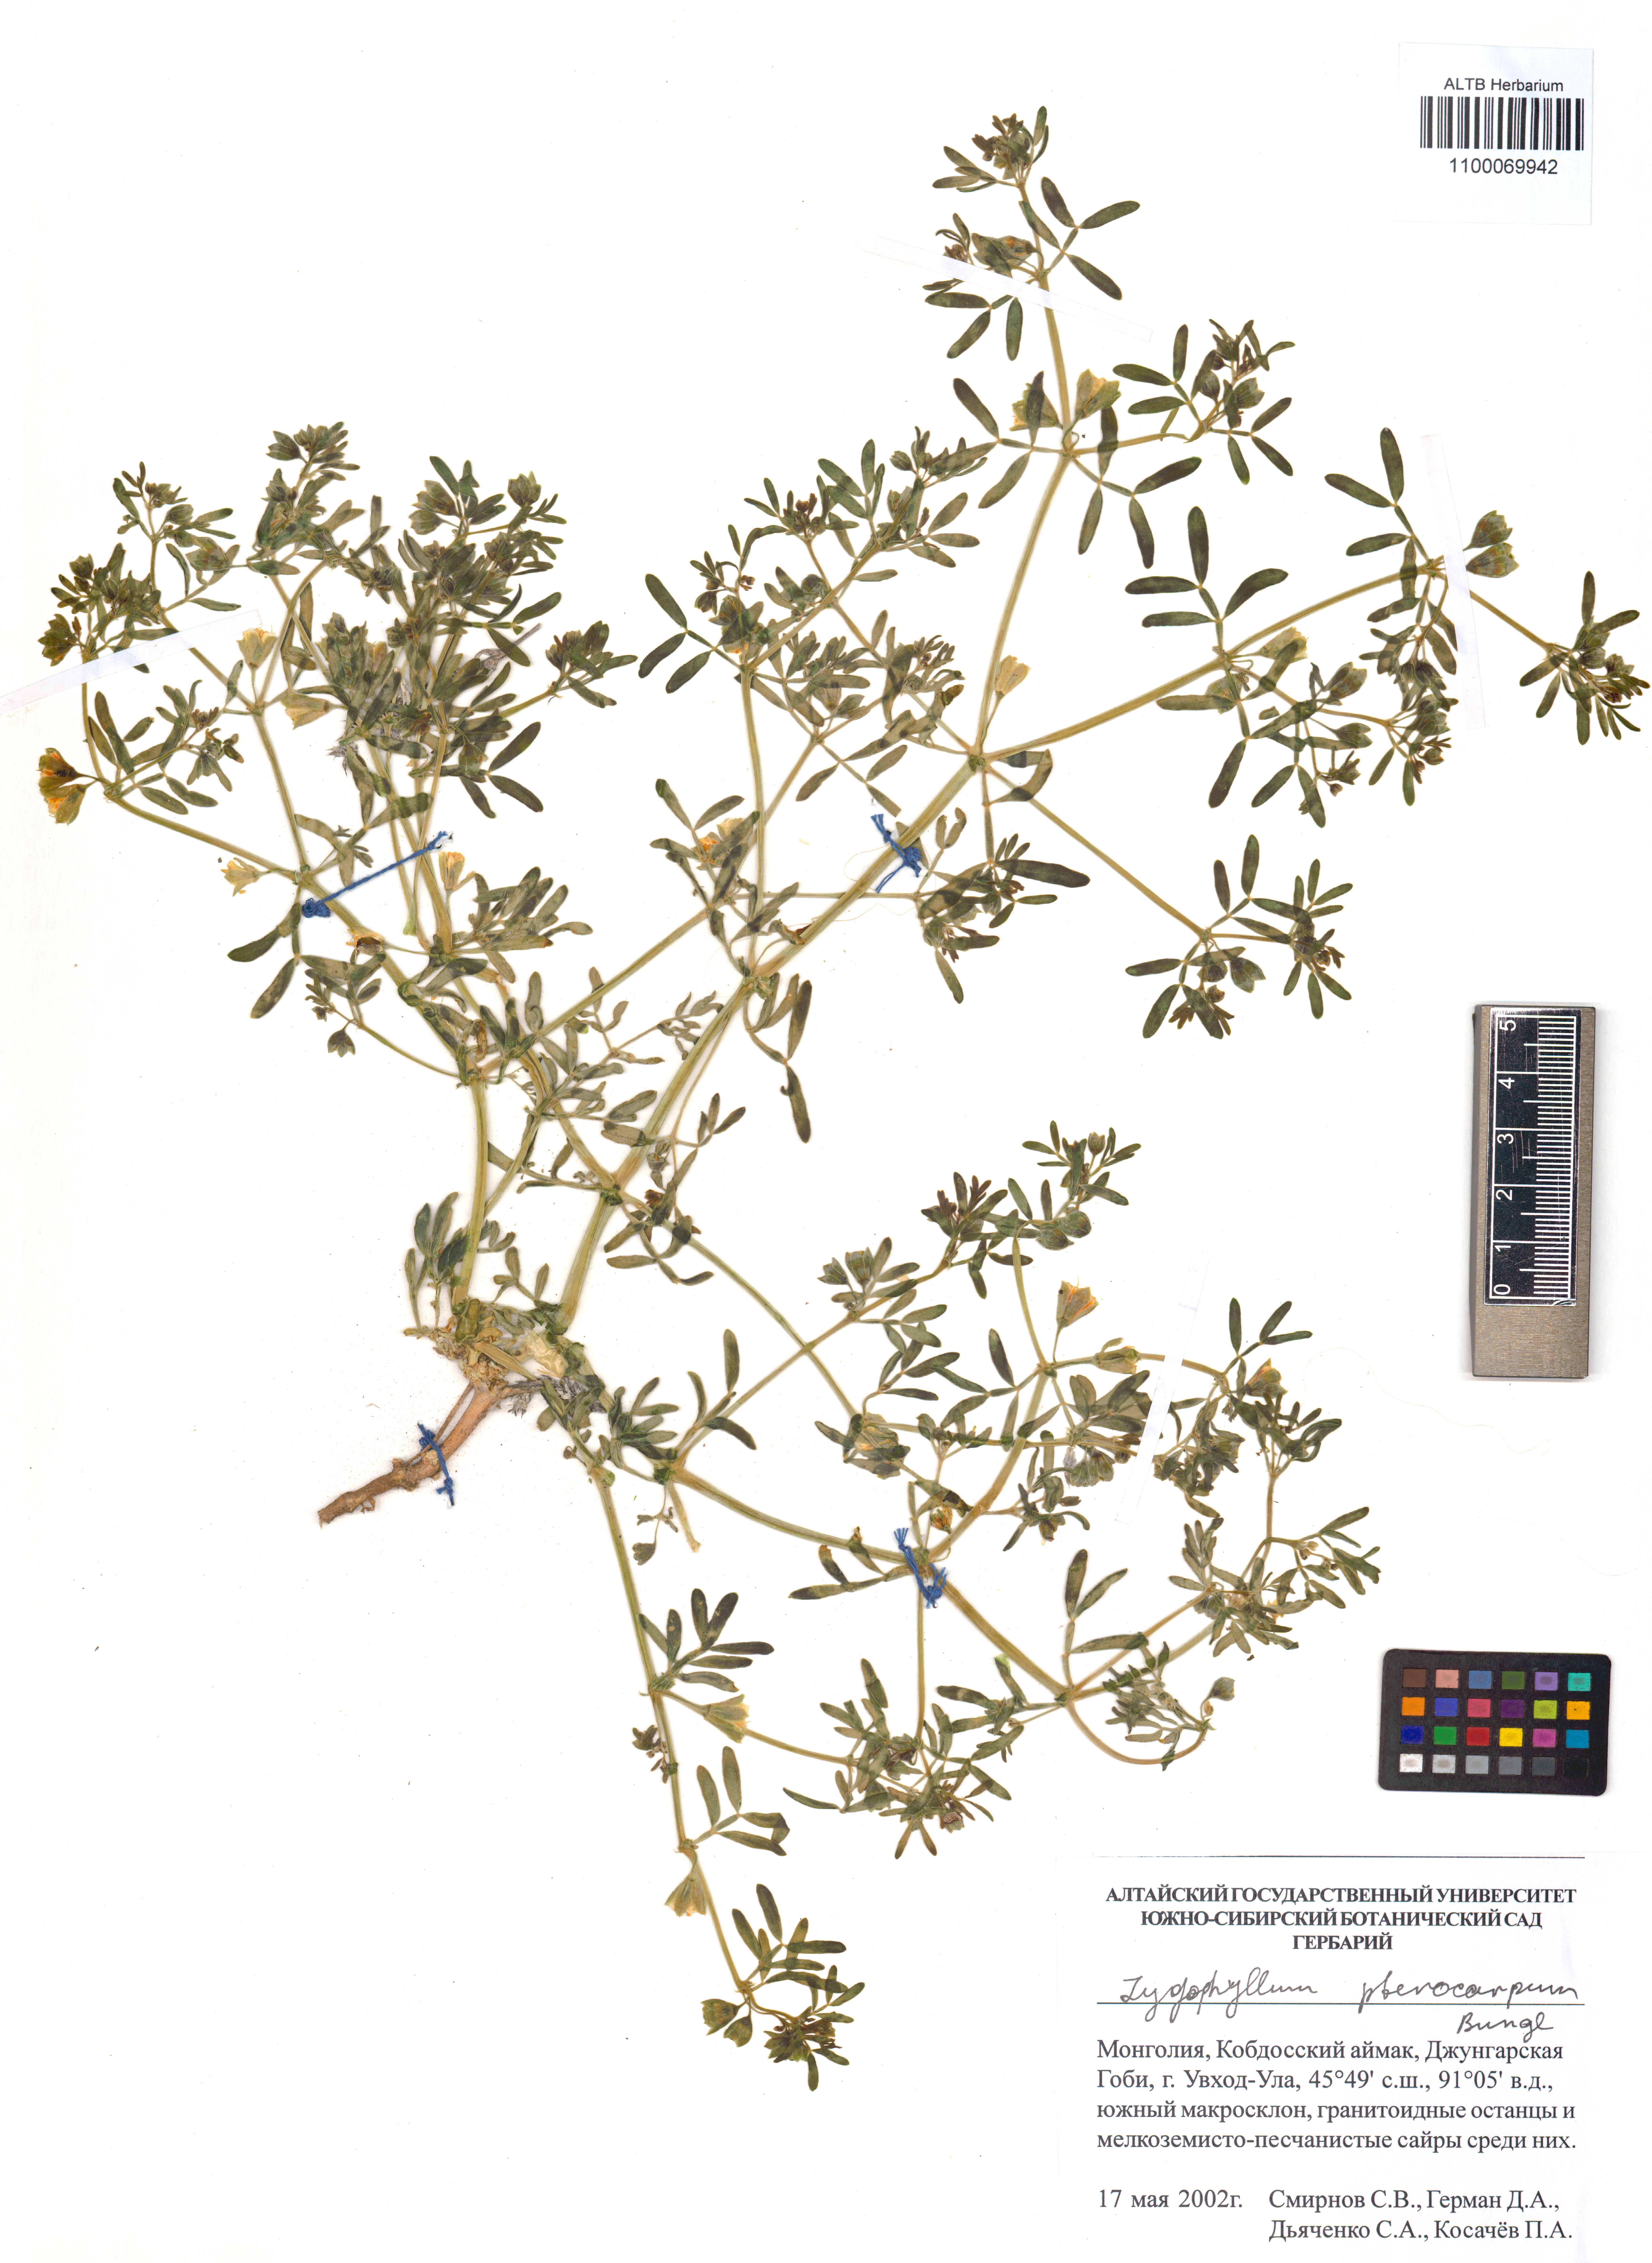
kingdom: Plantae
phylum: Tracheophyta
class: Magnoliopsida
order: Zygophyllales
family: Zygophyllaceae
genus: Zygophyllum
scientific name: Zygophyllum pterocarpum
